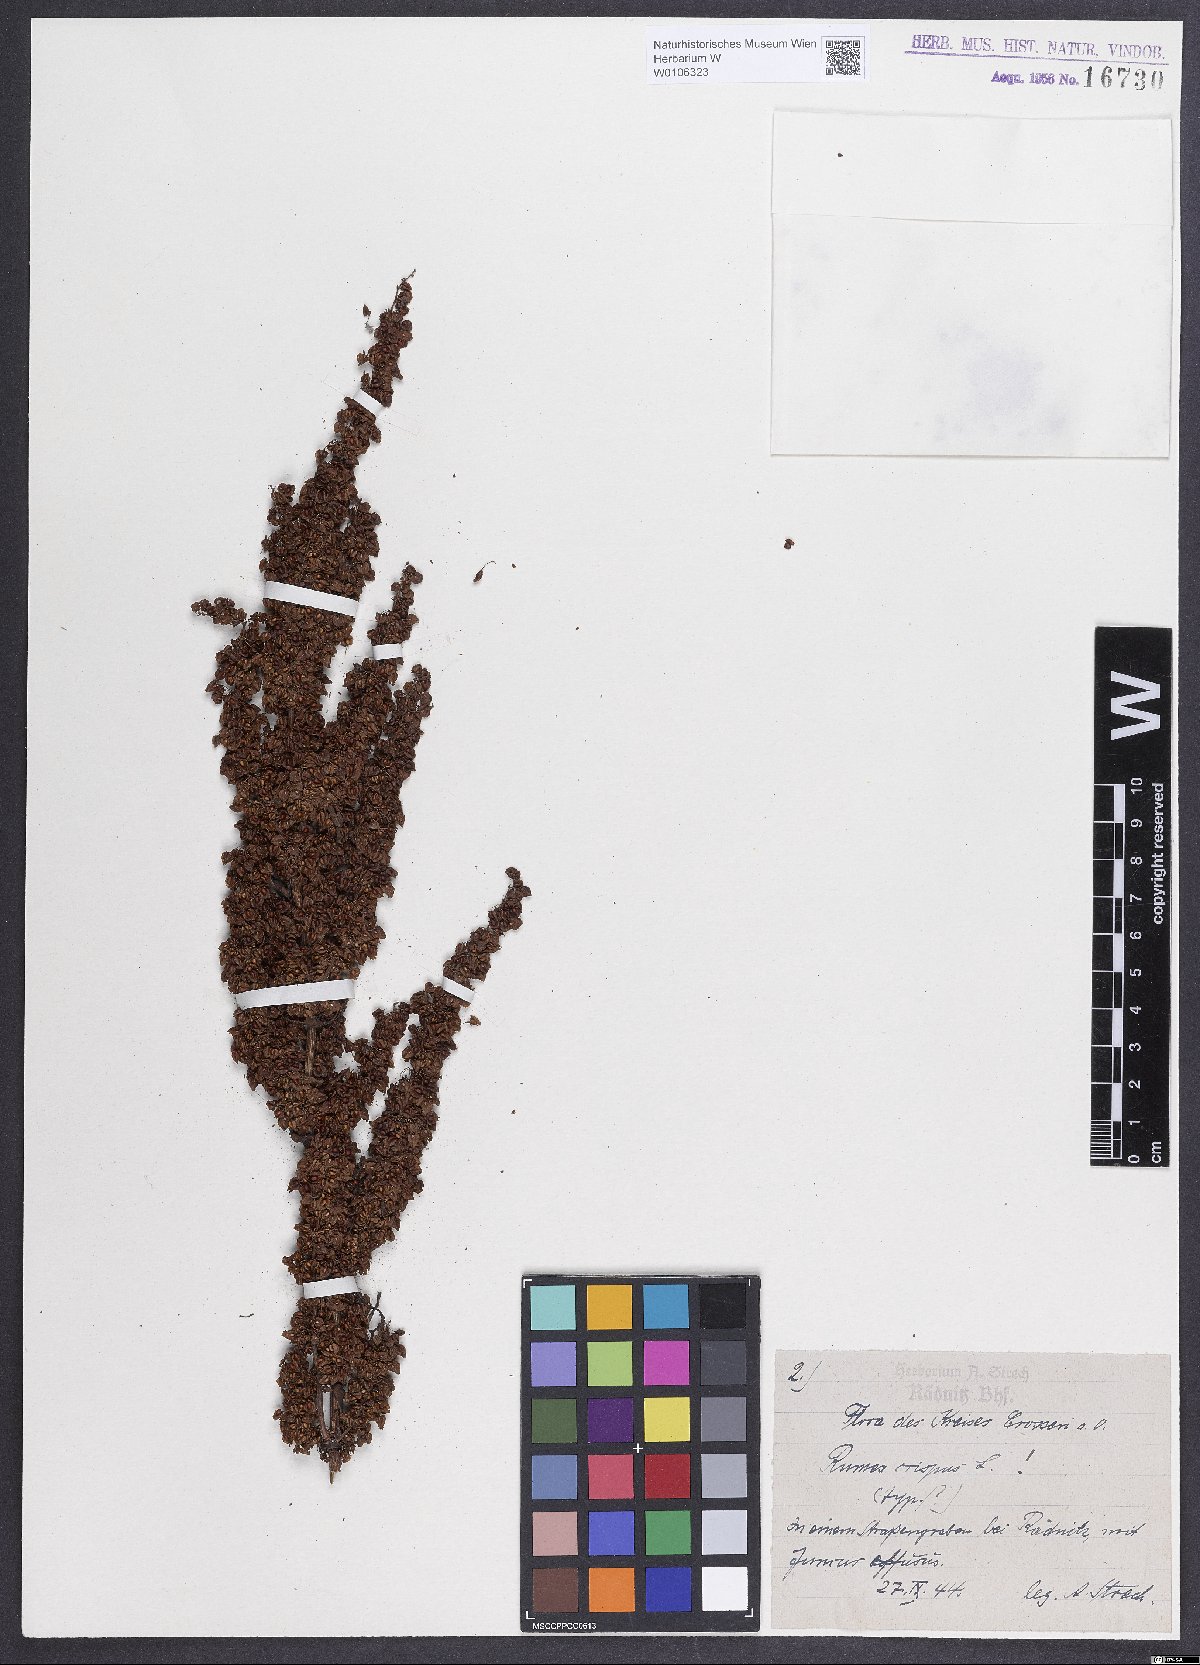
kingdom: Plantae
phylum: Tracheophyta
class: Magnoliopsida
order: Caryophyllales
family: Polygonaceae
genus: Rumex
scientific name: Rumex crispus
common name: Curled dock
